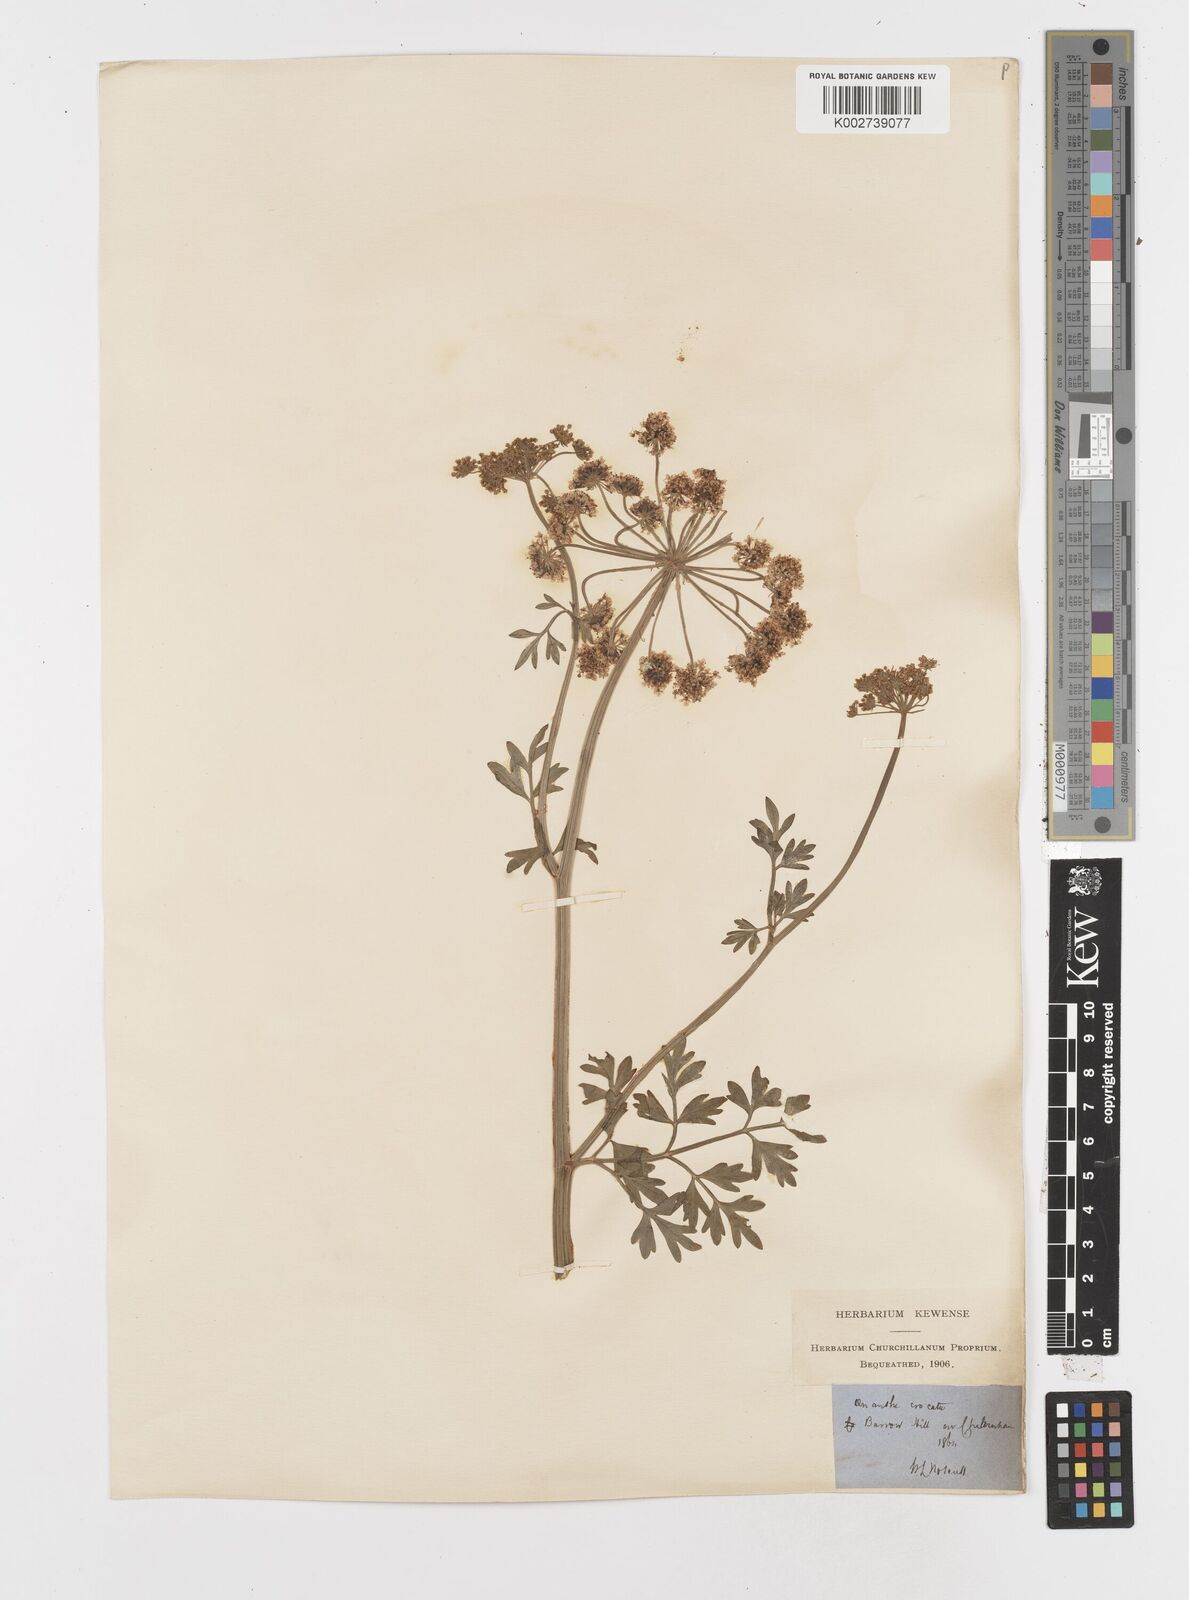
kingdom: Plantae
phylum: Tracheophyta
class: Magnoliopsida
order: Apiales
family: Apiaceae
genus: Oenanthe
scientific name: Oenanthe crocata
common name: Hemlock water-dropwort
